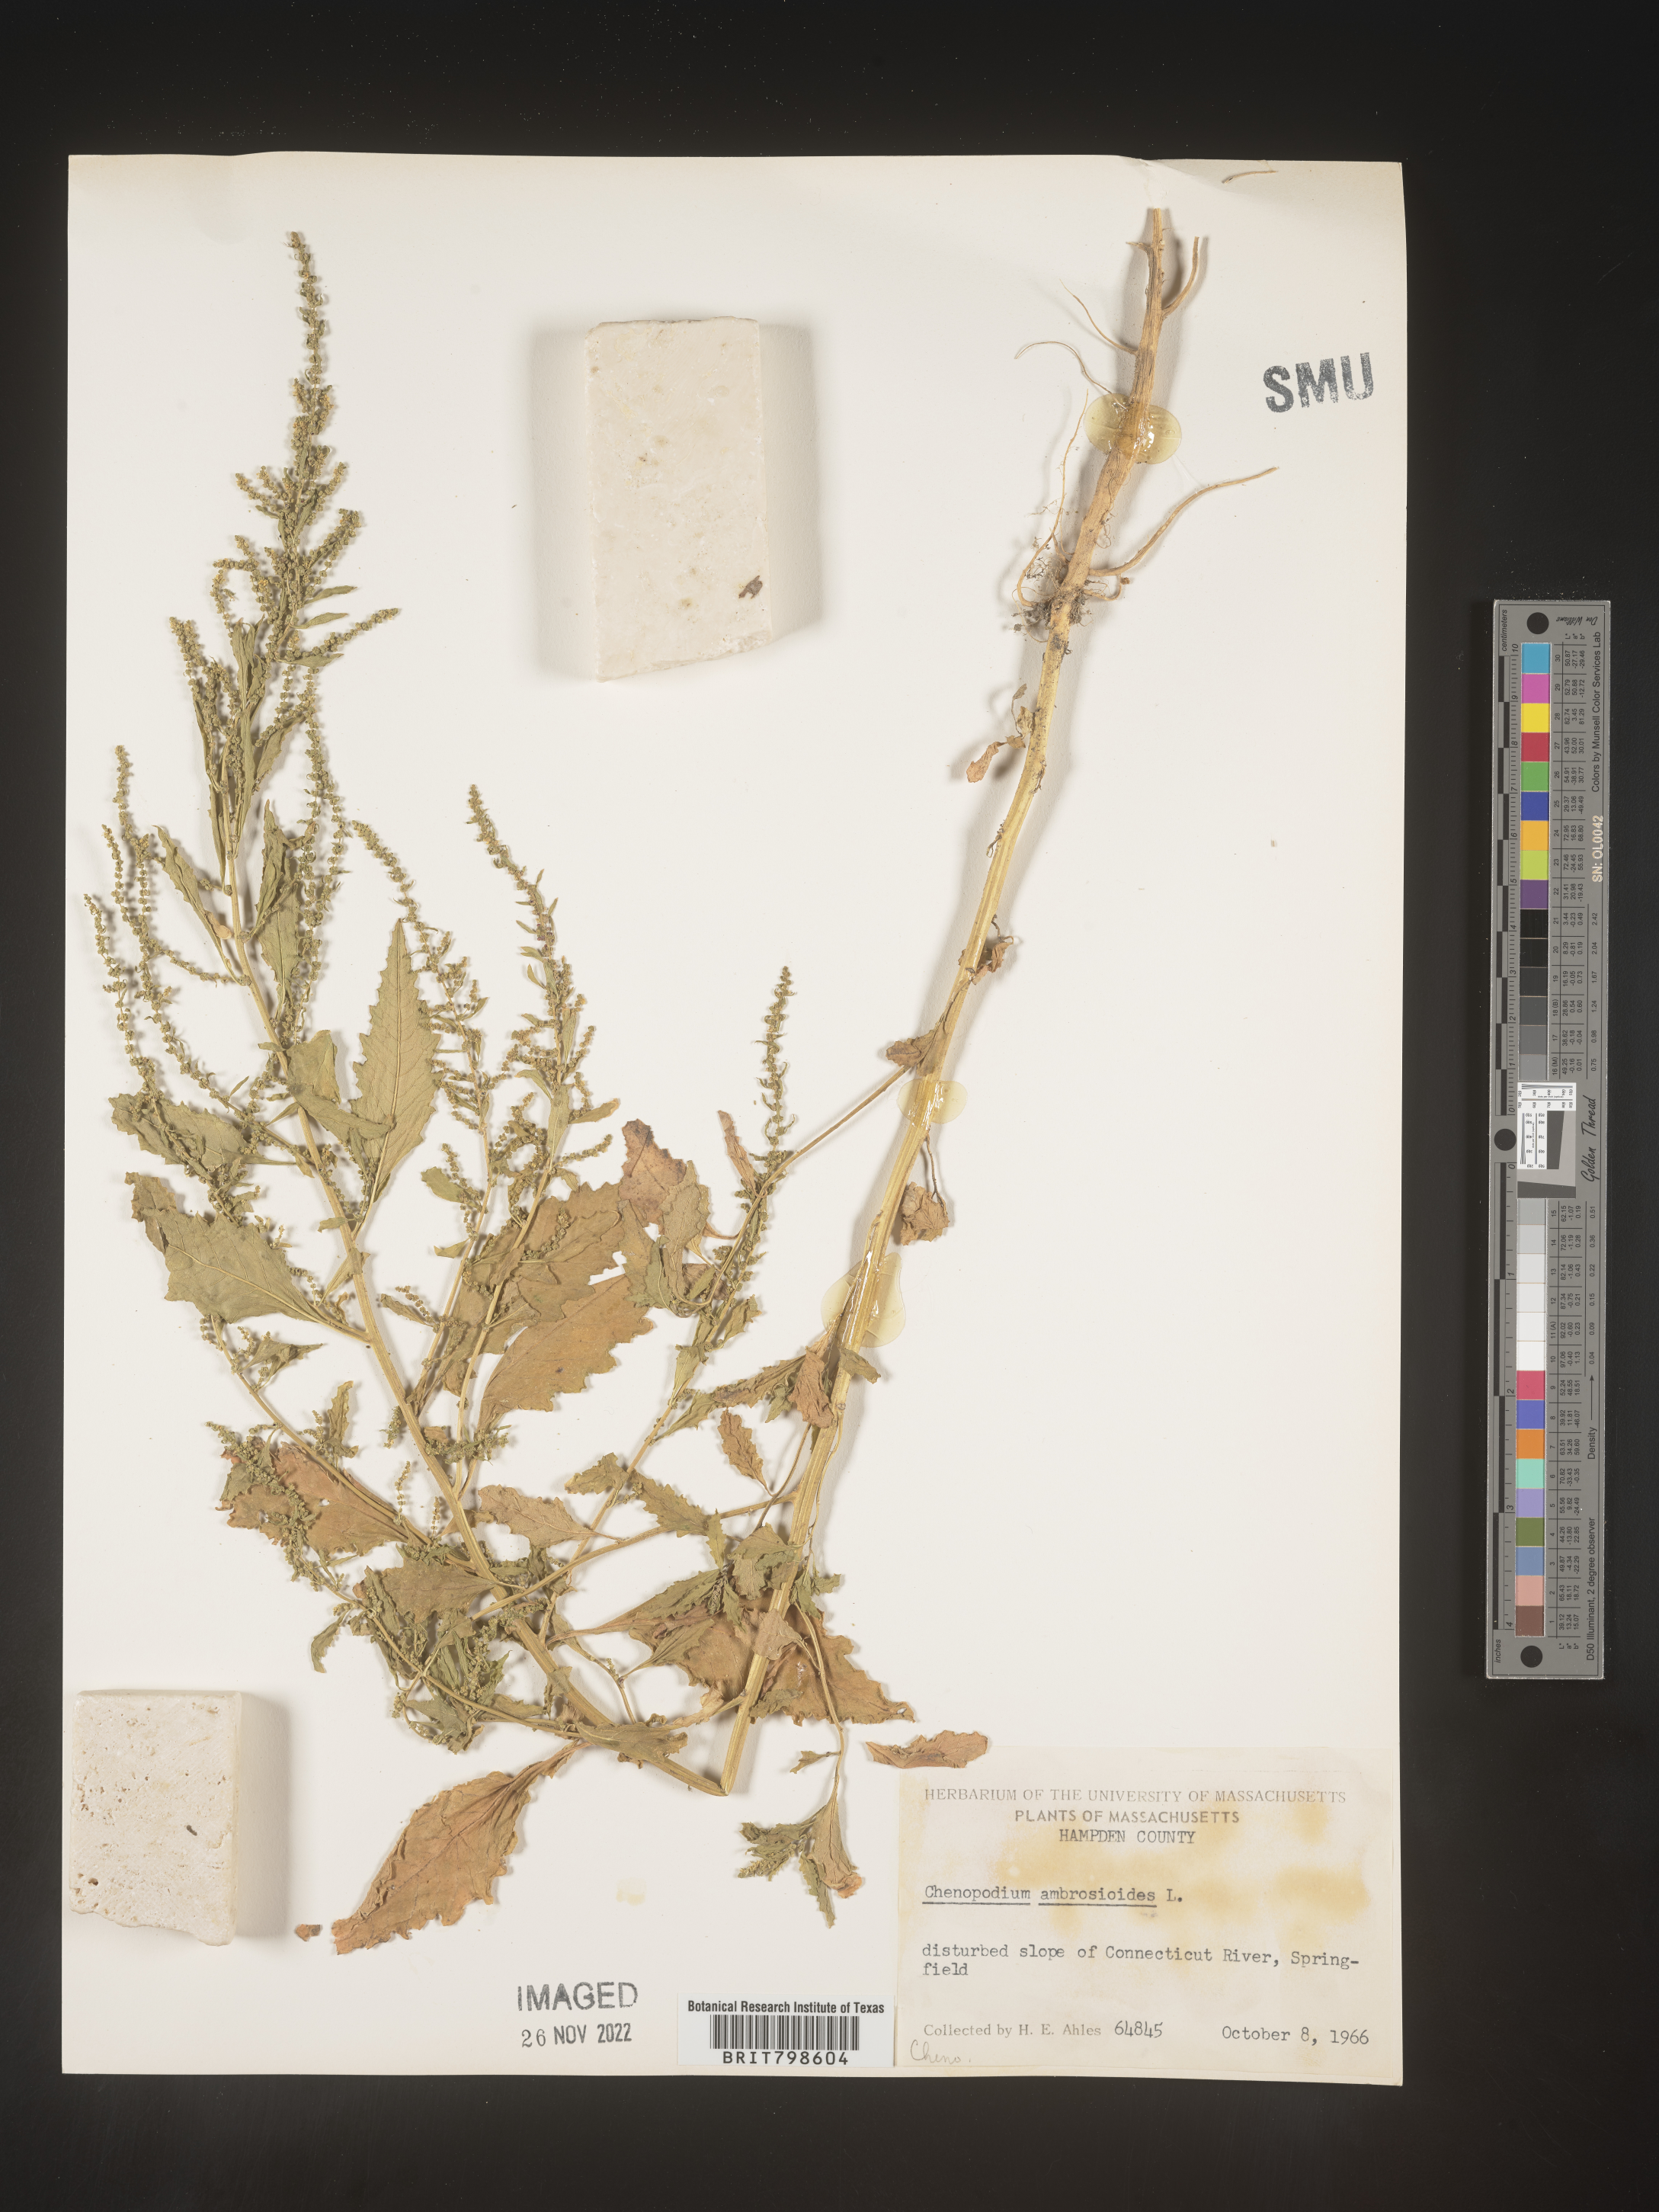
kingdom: Plantae
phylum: Tracheophyta
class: Magnoliopsida
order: Caryophyllales
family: Amaranthaceae
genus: Dysphania
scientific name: Dysphania ambrosioides
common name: Wormseed
